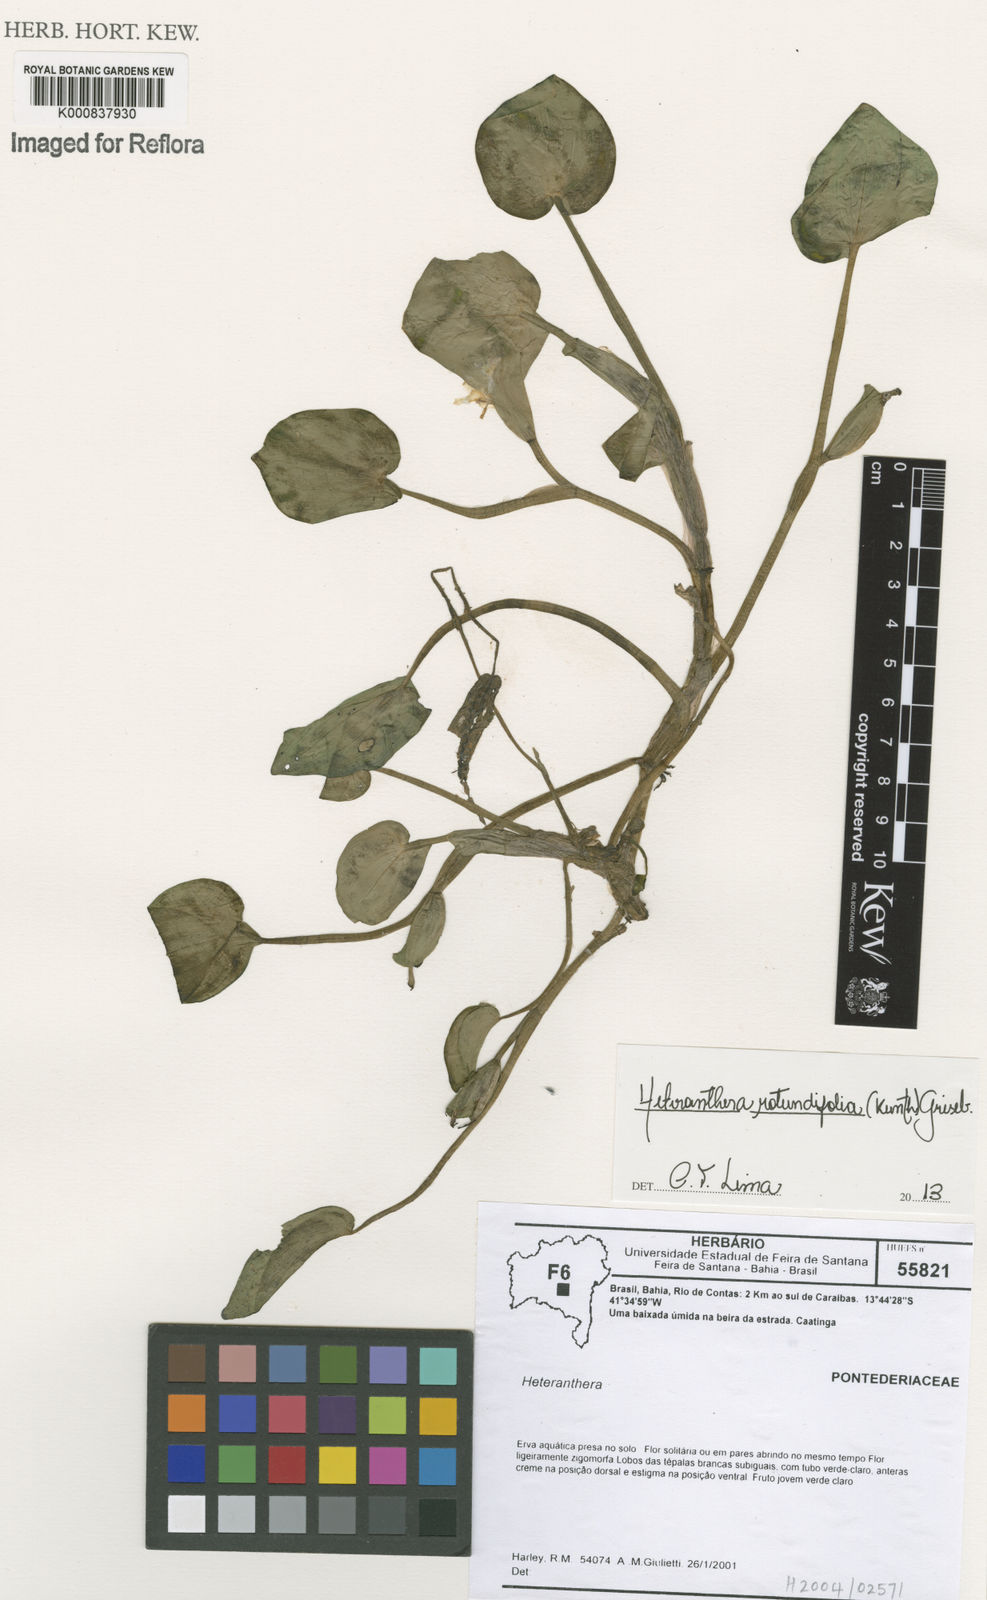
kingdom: Plantae
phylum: Tracheophyta
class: Liliopsida
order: Commelinales
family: Pontederiaceae
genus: Heteranthera
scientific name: Heteranthera rotundifolia
